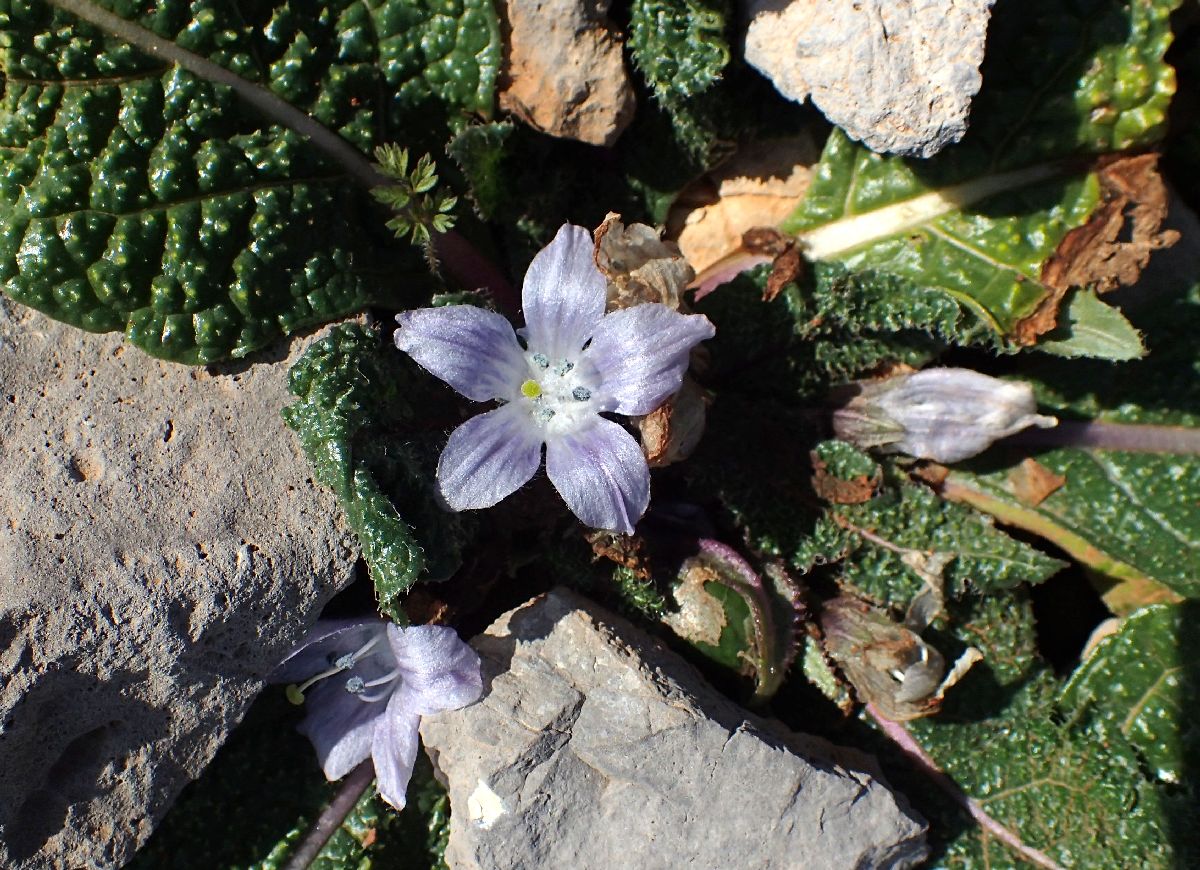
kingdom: Plantae
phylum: Tracheophyta
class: Magnoliopsida
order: Solanales
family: Solanaceae
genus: Mandragora
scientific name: Mandragora officinarum
